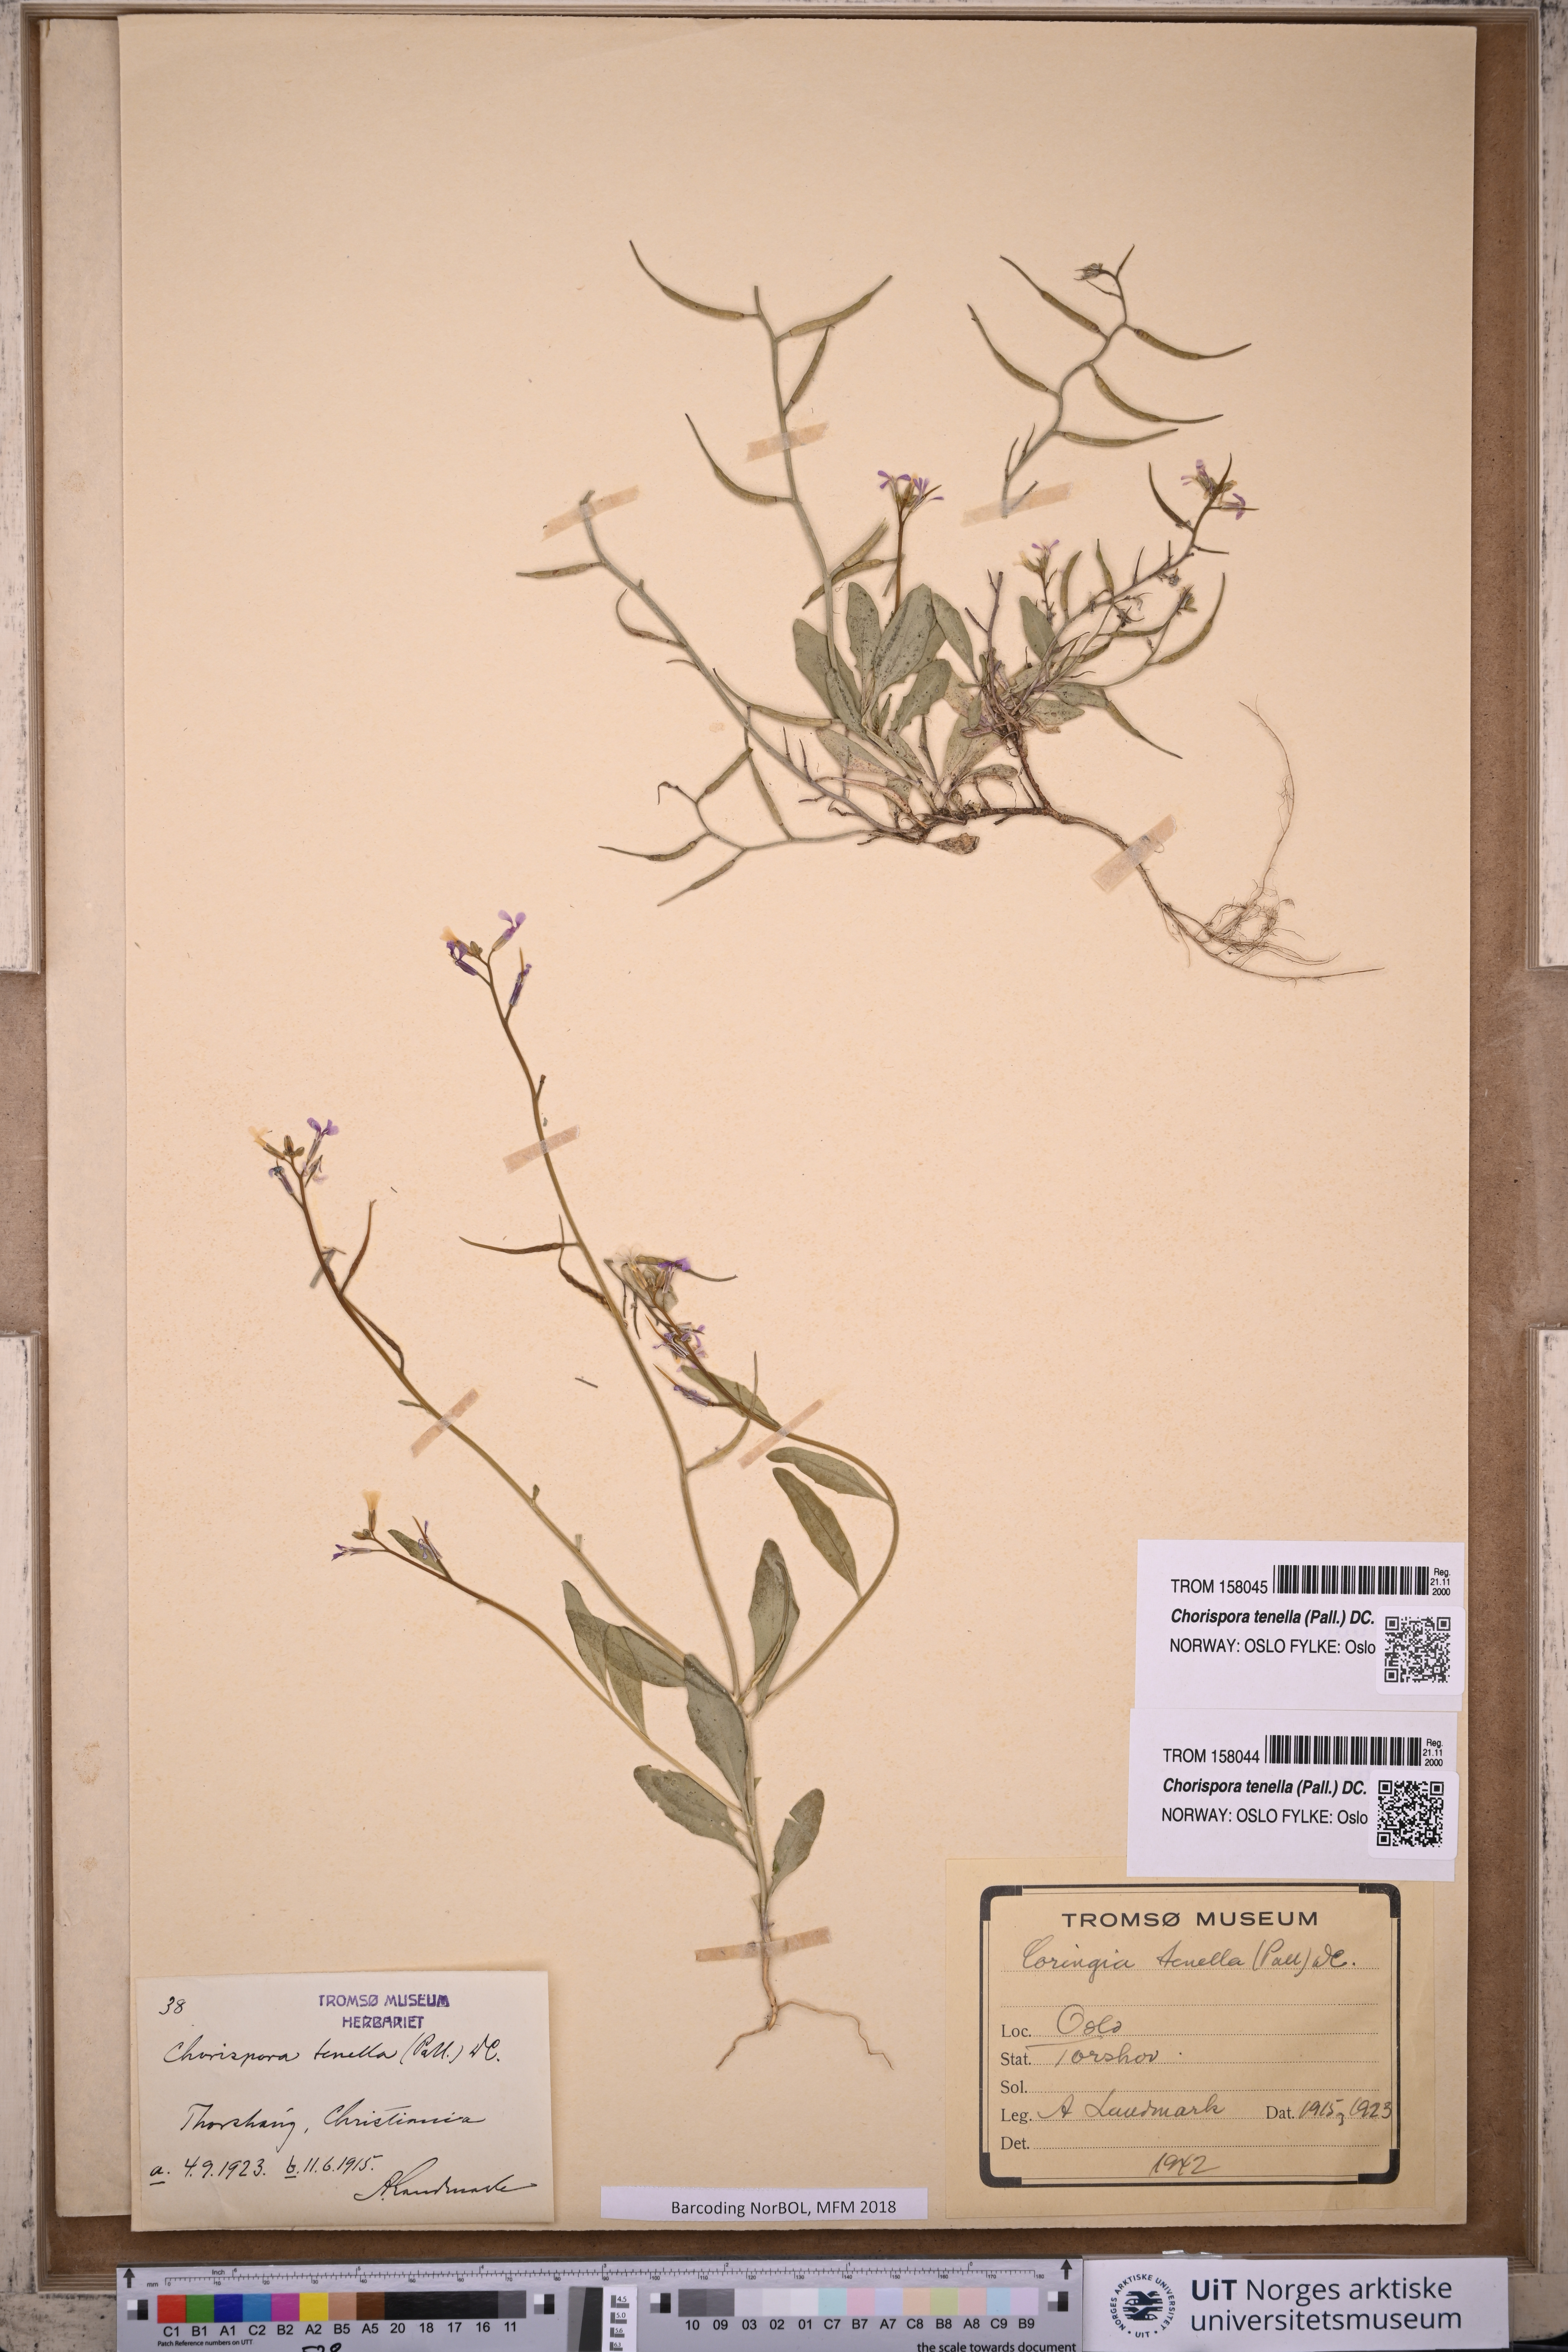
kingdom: Plantae
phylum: Tracheophyta
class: Magnoliopsida
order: Brassicales
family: Brassicaceae
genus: Chorispora
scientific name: Chorispora tenella
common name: Crossflower
